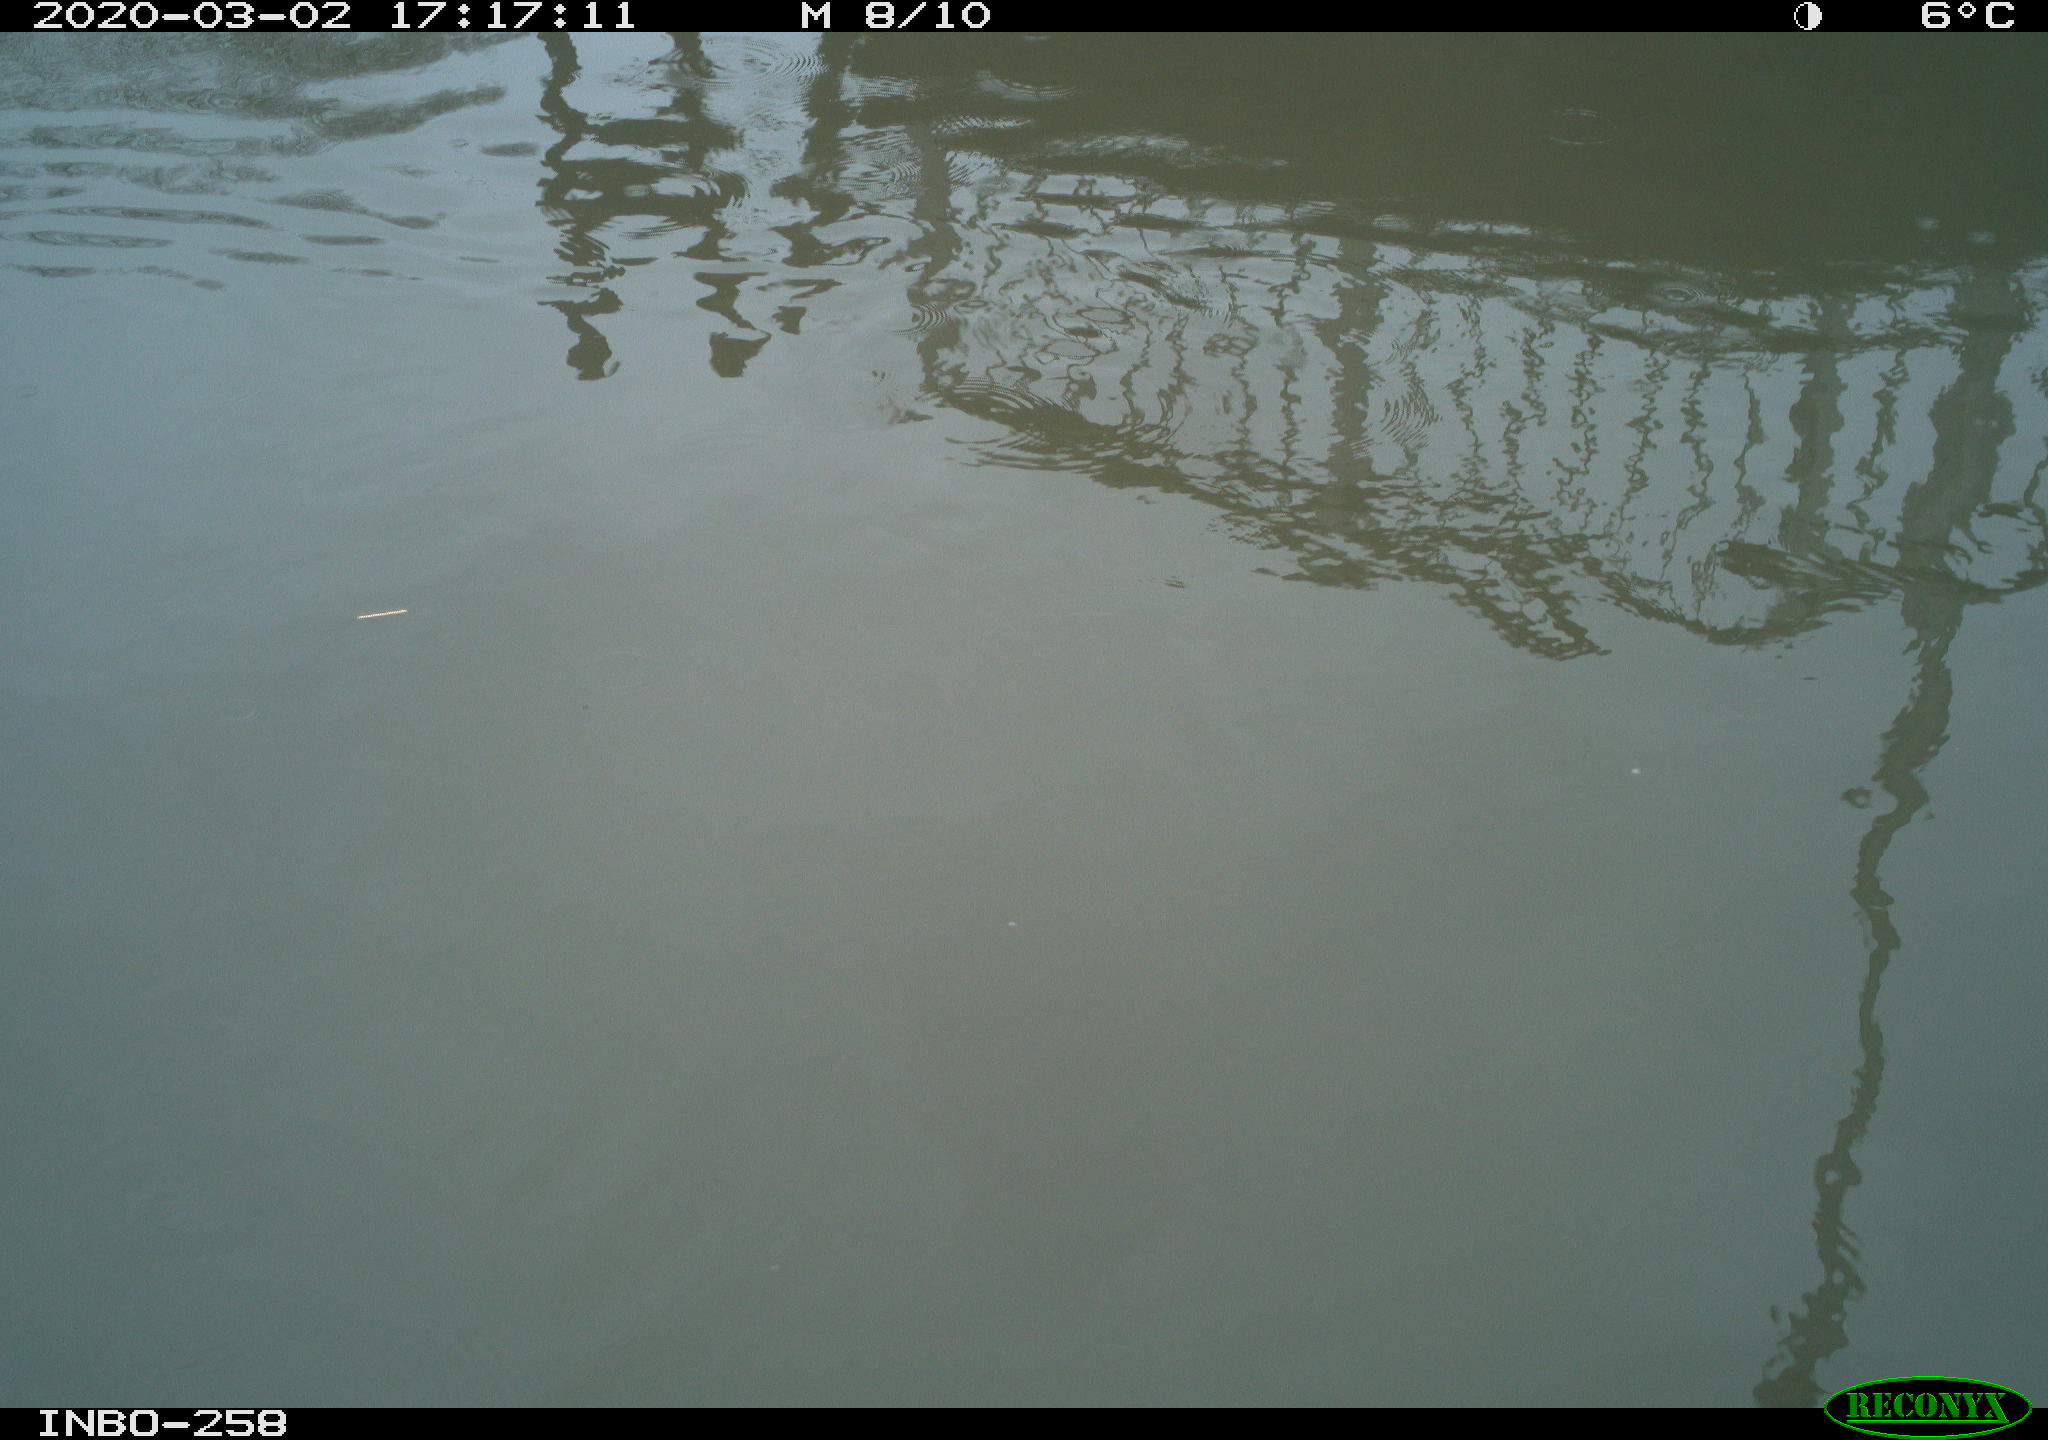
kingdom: Animalia
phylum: Chordata
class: Aves
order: Gruiformes
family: Rallidae
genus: Gallinula
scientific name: Gallinula chloropus
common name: Common moorhen
